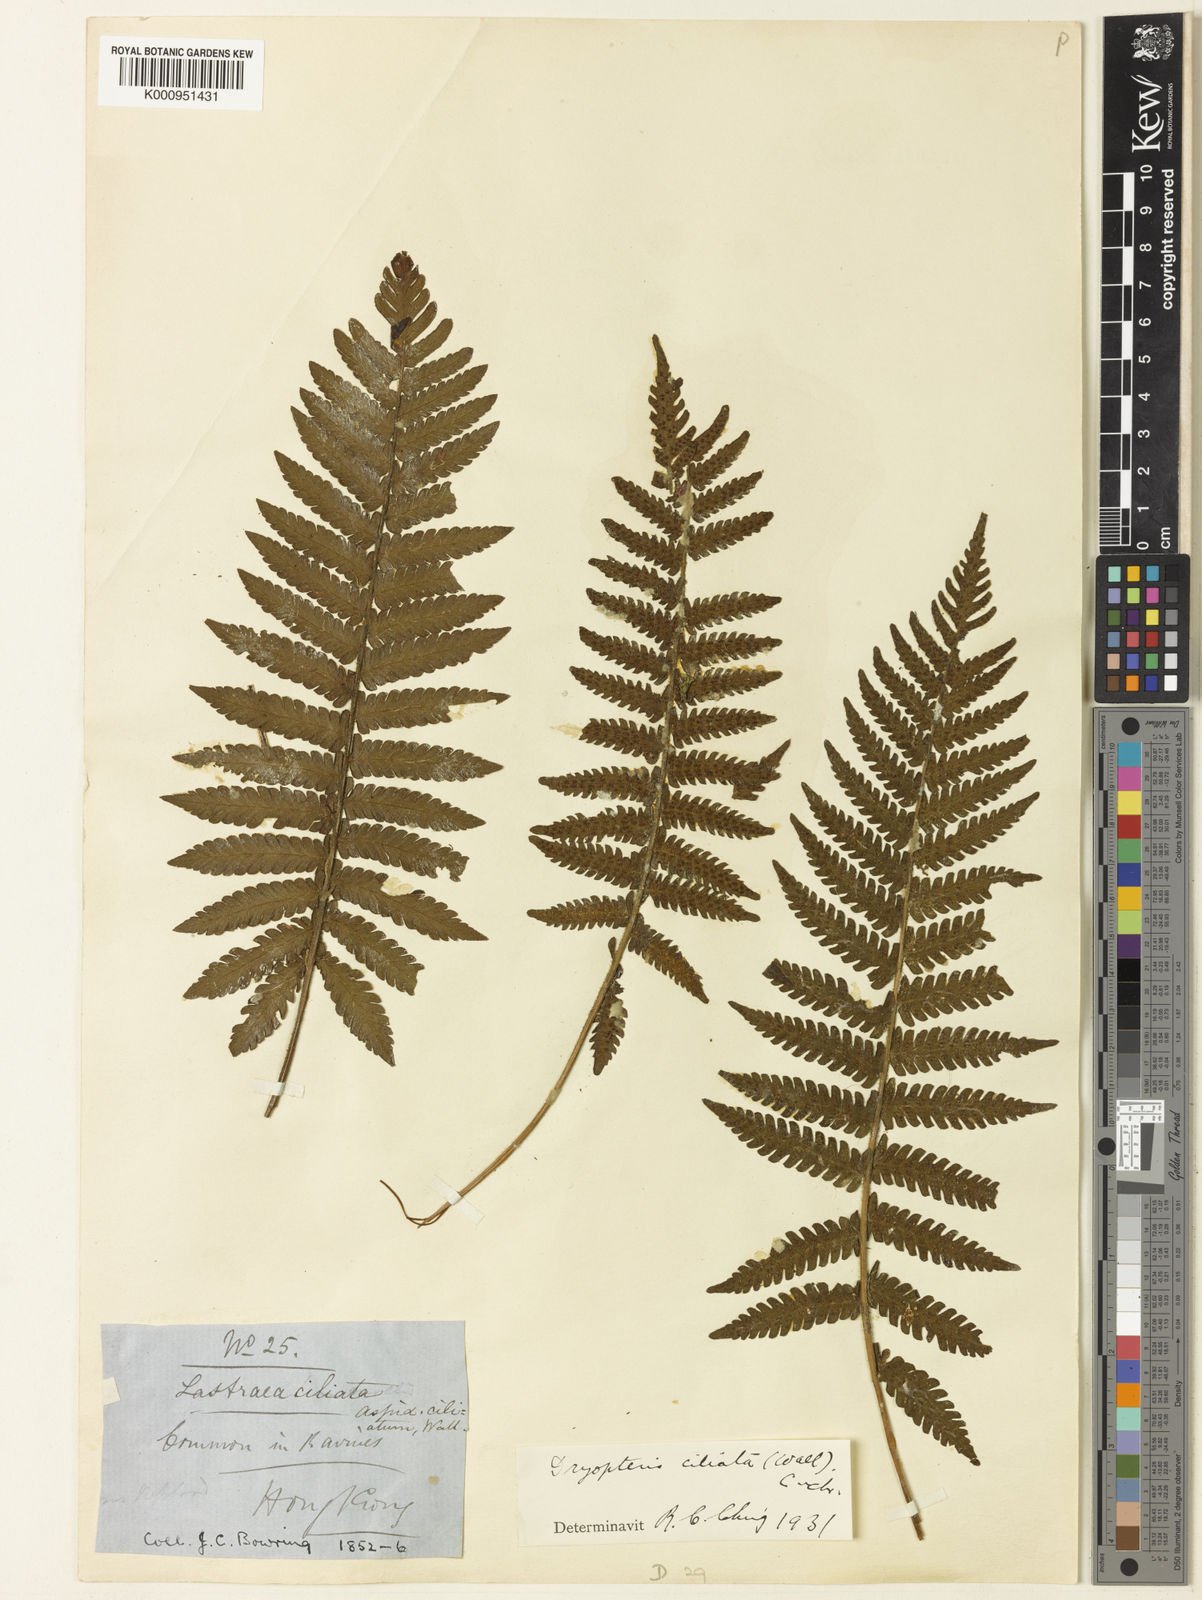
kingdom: Plantae
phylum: Tracheophyta
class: Polypodiopsida
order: Polypodiales
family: Thelypteridaceae
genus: Trigonospora
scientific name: Trigonospora tenera
